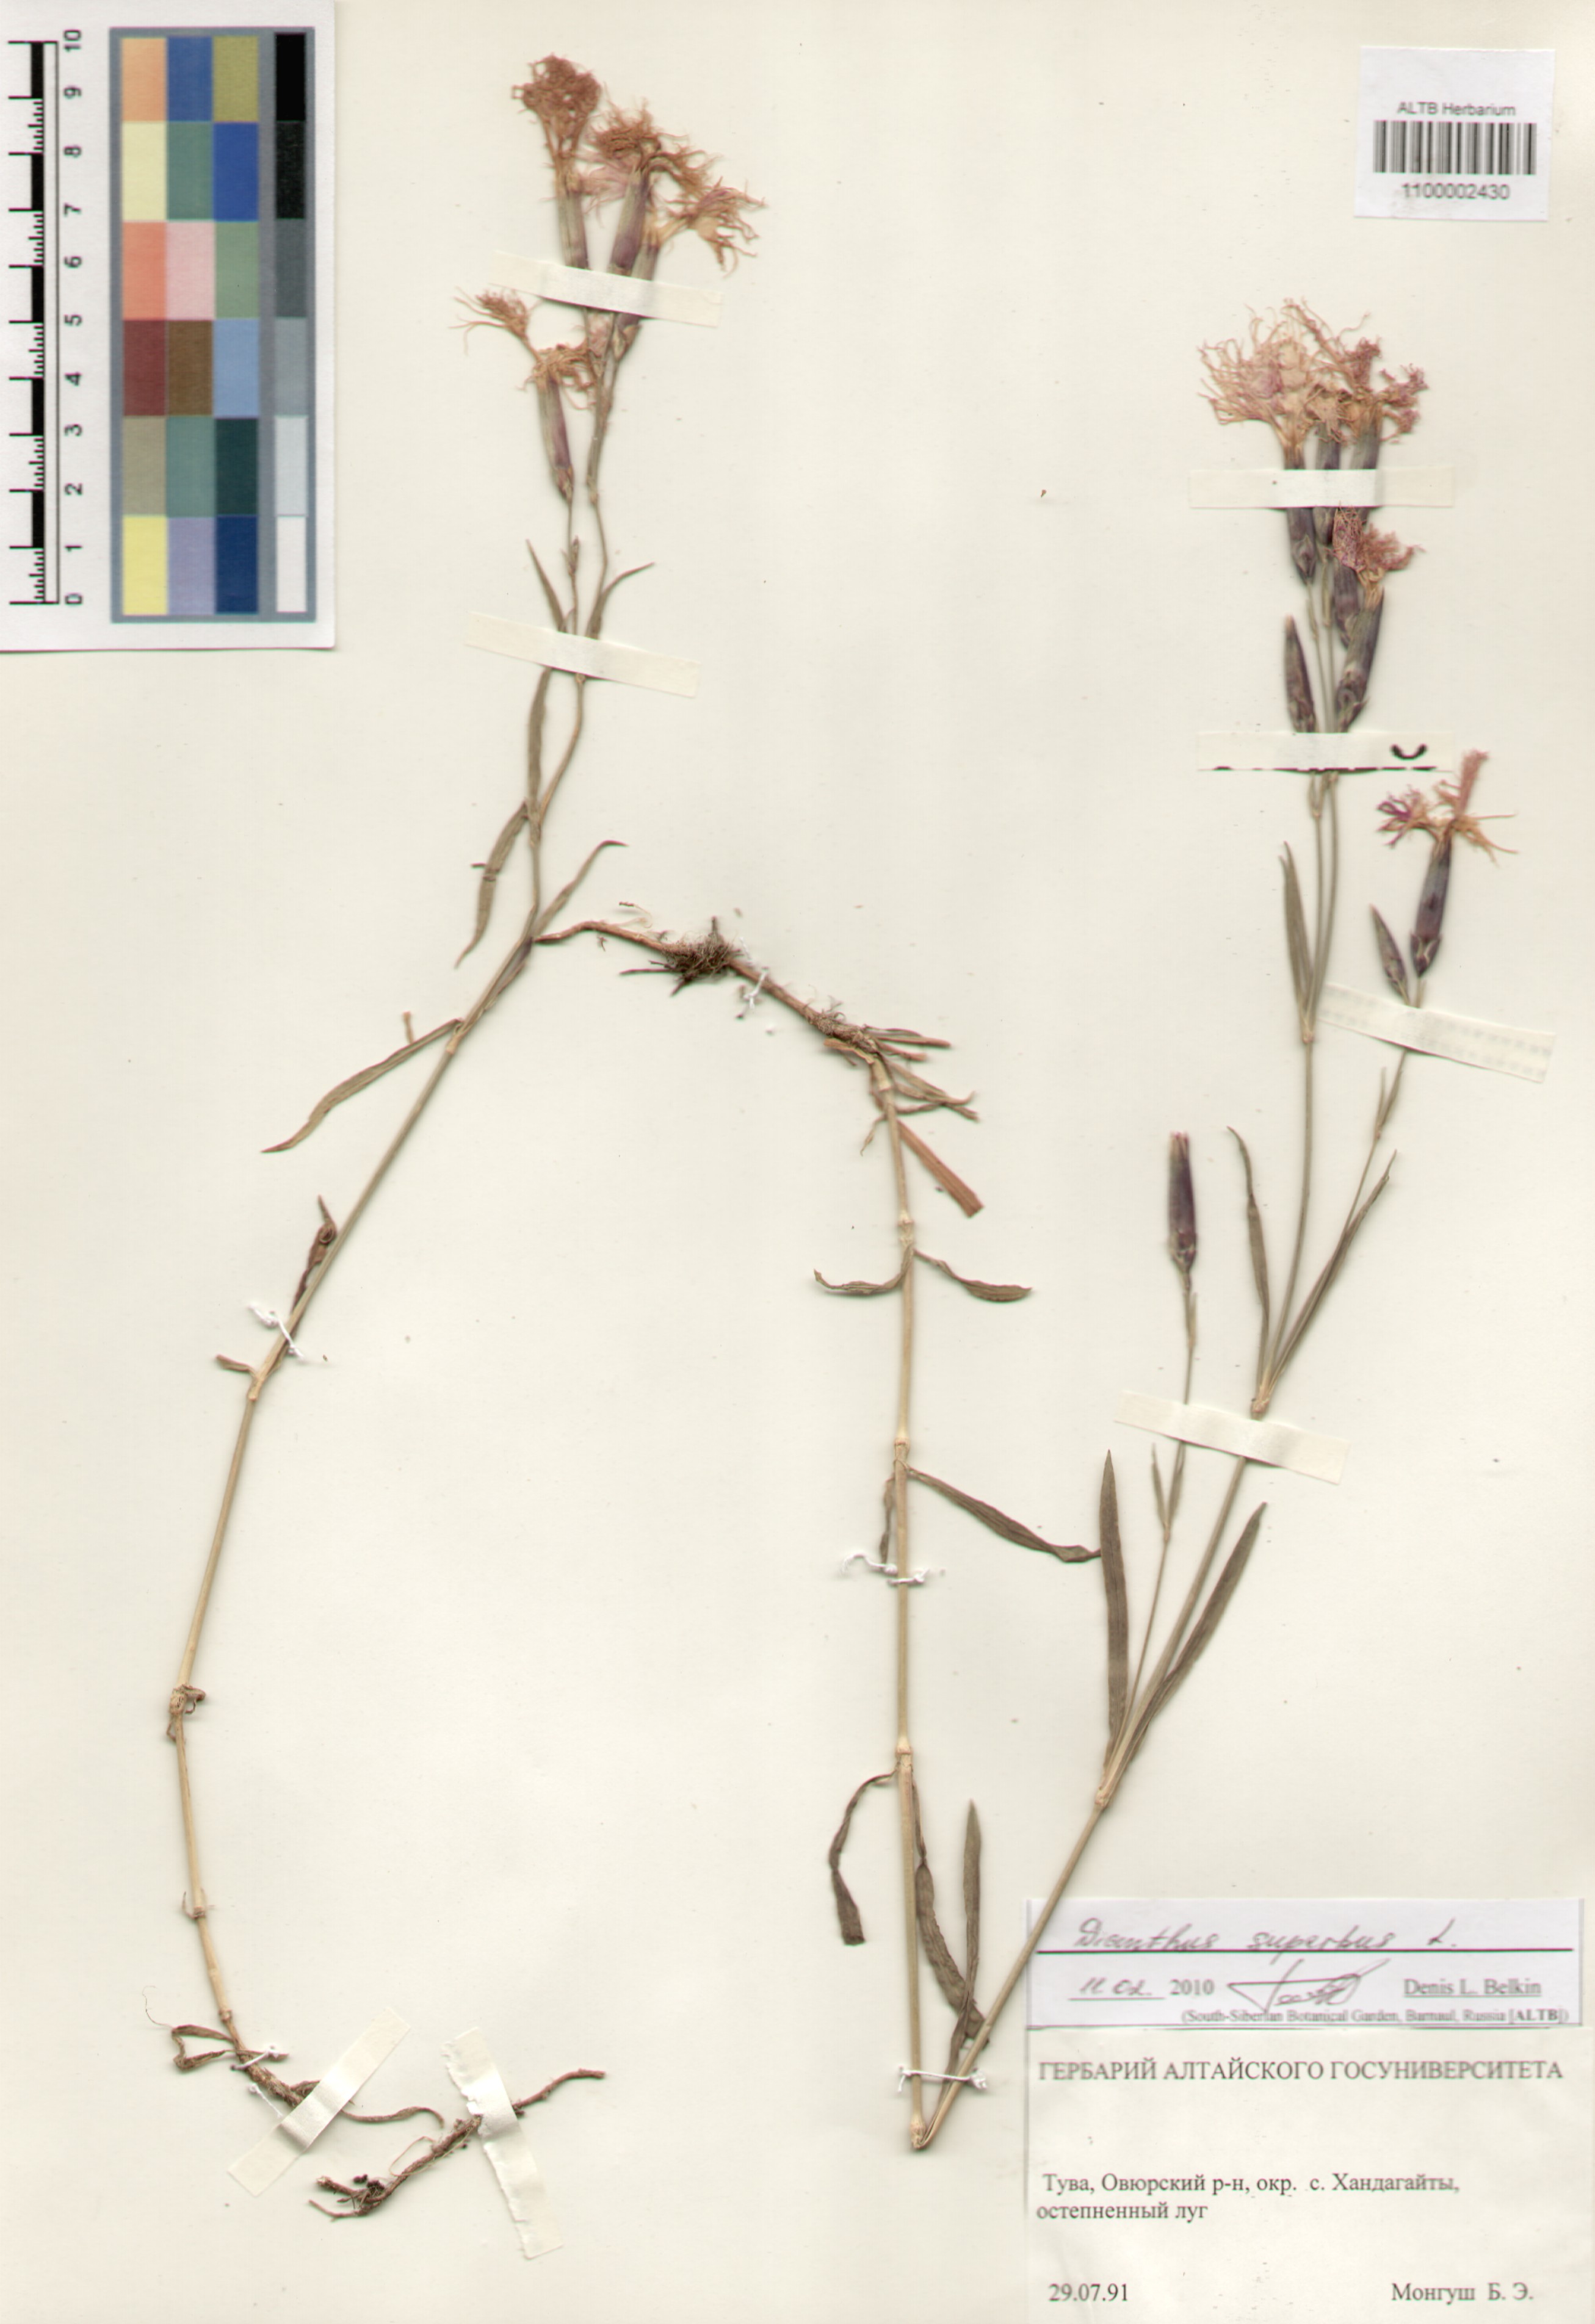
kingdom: Plantae
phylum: Tracheophyta
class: Magnoliopsida
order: Caryophyllales
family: Caryophyllaceae
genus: Dianthus
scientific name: Dianthus superbus
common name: Fringed pink
